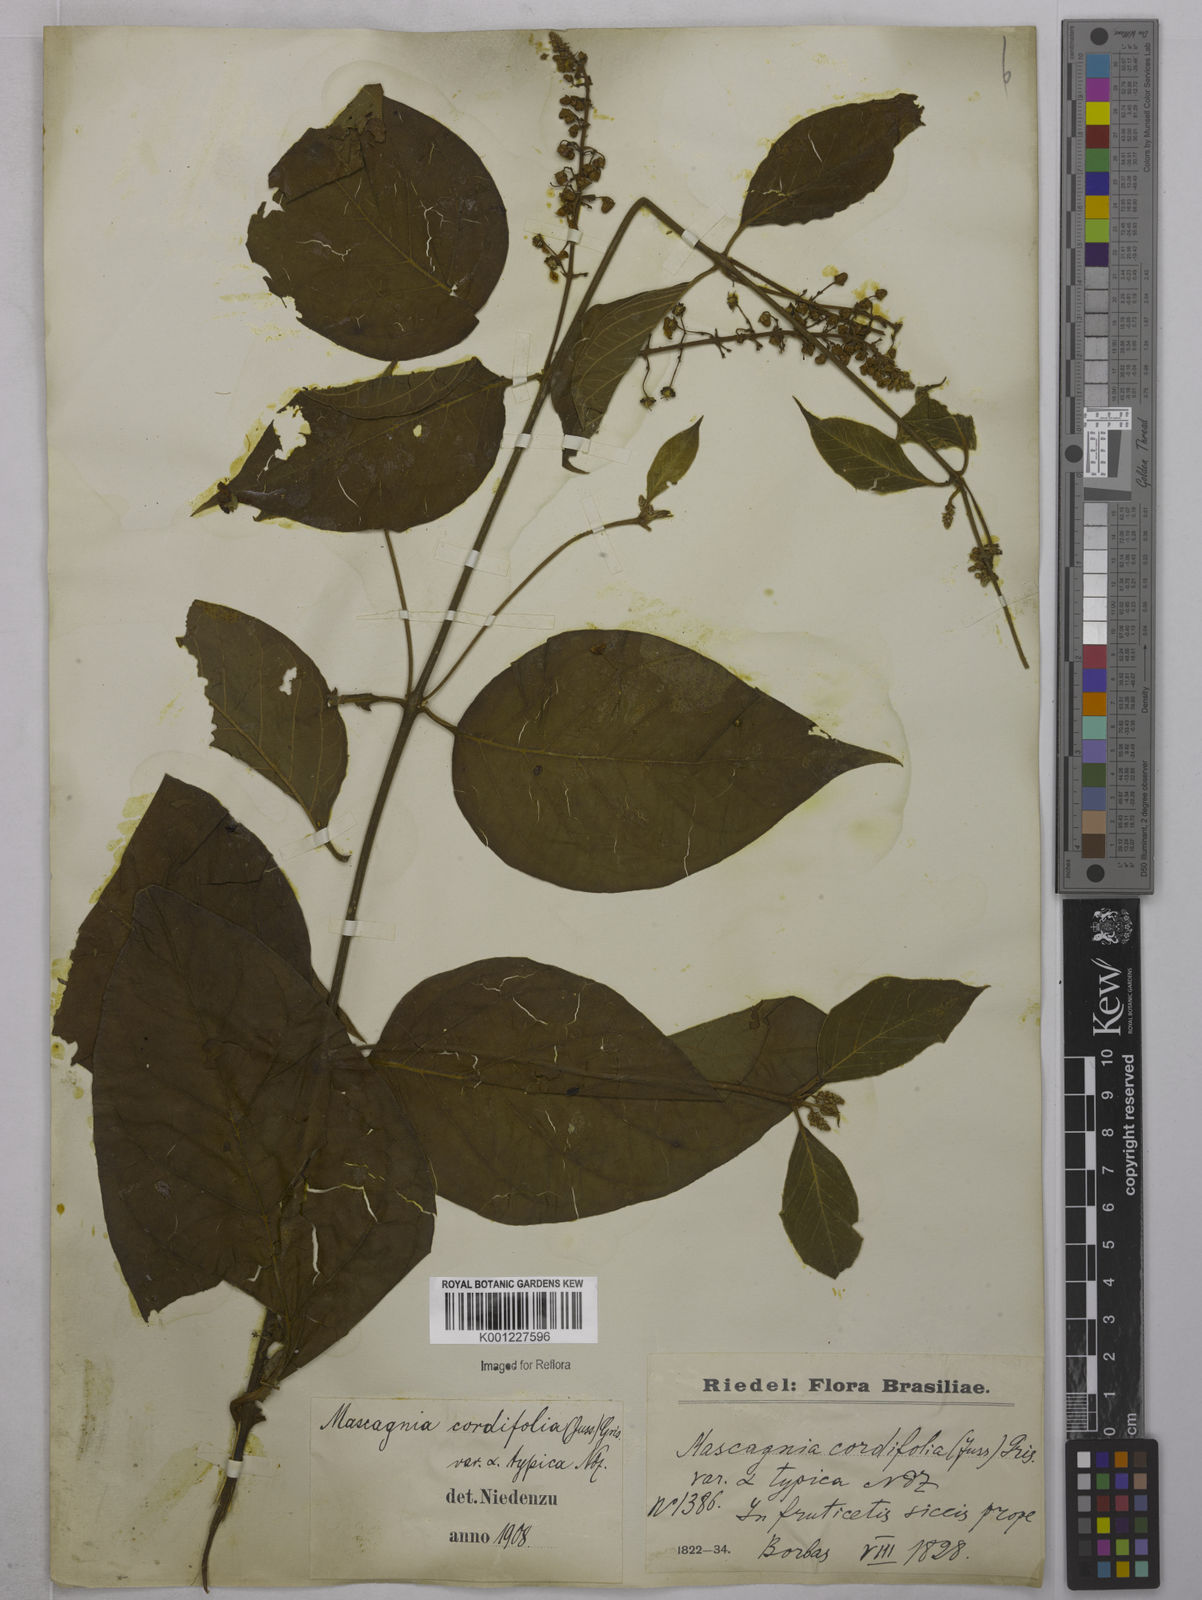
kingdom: Plantae
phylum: Tracheophyta
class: Magnoliopsida
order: Malpighiales
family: Malpighiaceae
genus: Mascagnia
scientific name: Mascagnia cordifolia
